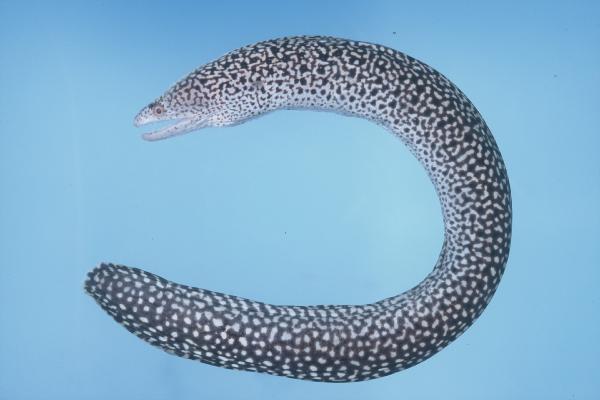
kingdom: Animalia
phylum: Chordata
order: Anguilliformes
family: Muraenidae
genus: Gymnothorax
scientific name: Gymnothorax eurostus
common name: Stout moray
